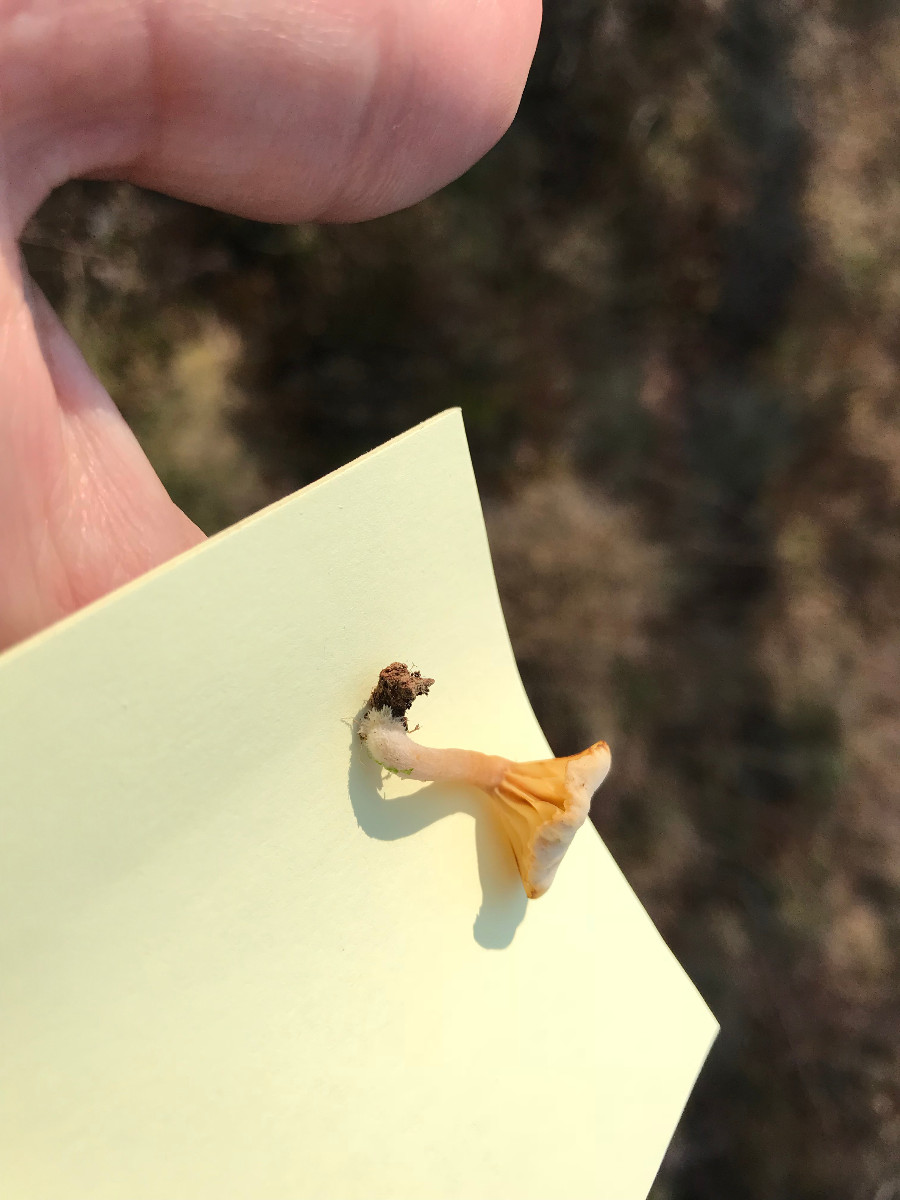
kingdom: Fungi
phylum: Basidiomycota
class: Agaricomycetes
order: Agaricales
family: Hygrophoraceae
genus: Lichenomphalia
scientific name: Lichenomphalia umbellifera
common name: tørve-lavhat
